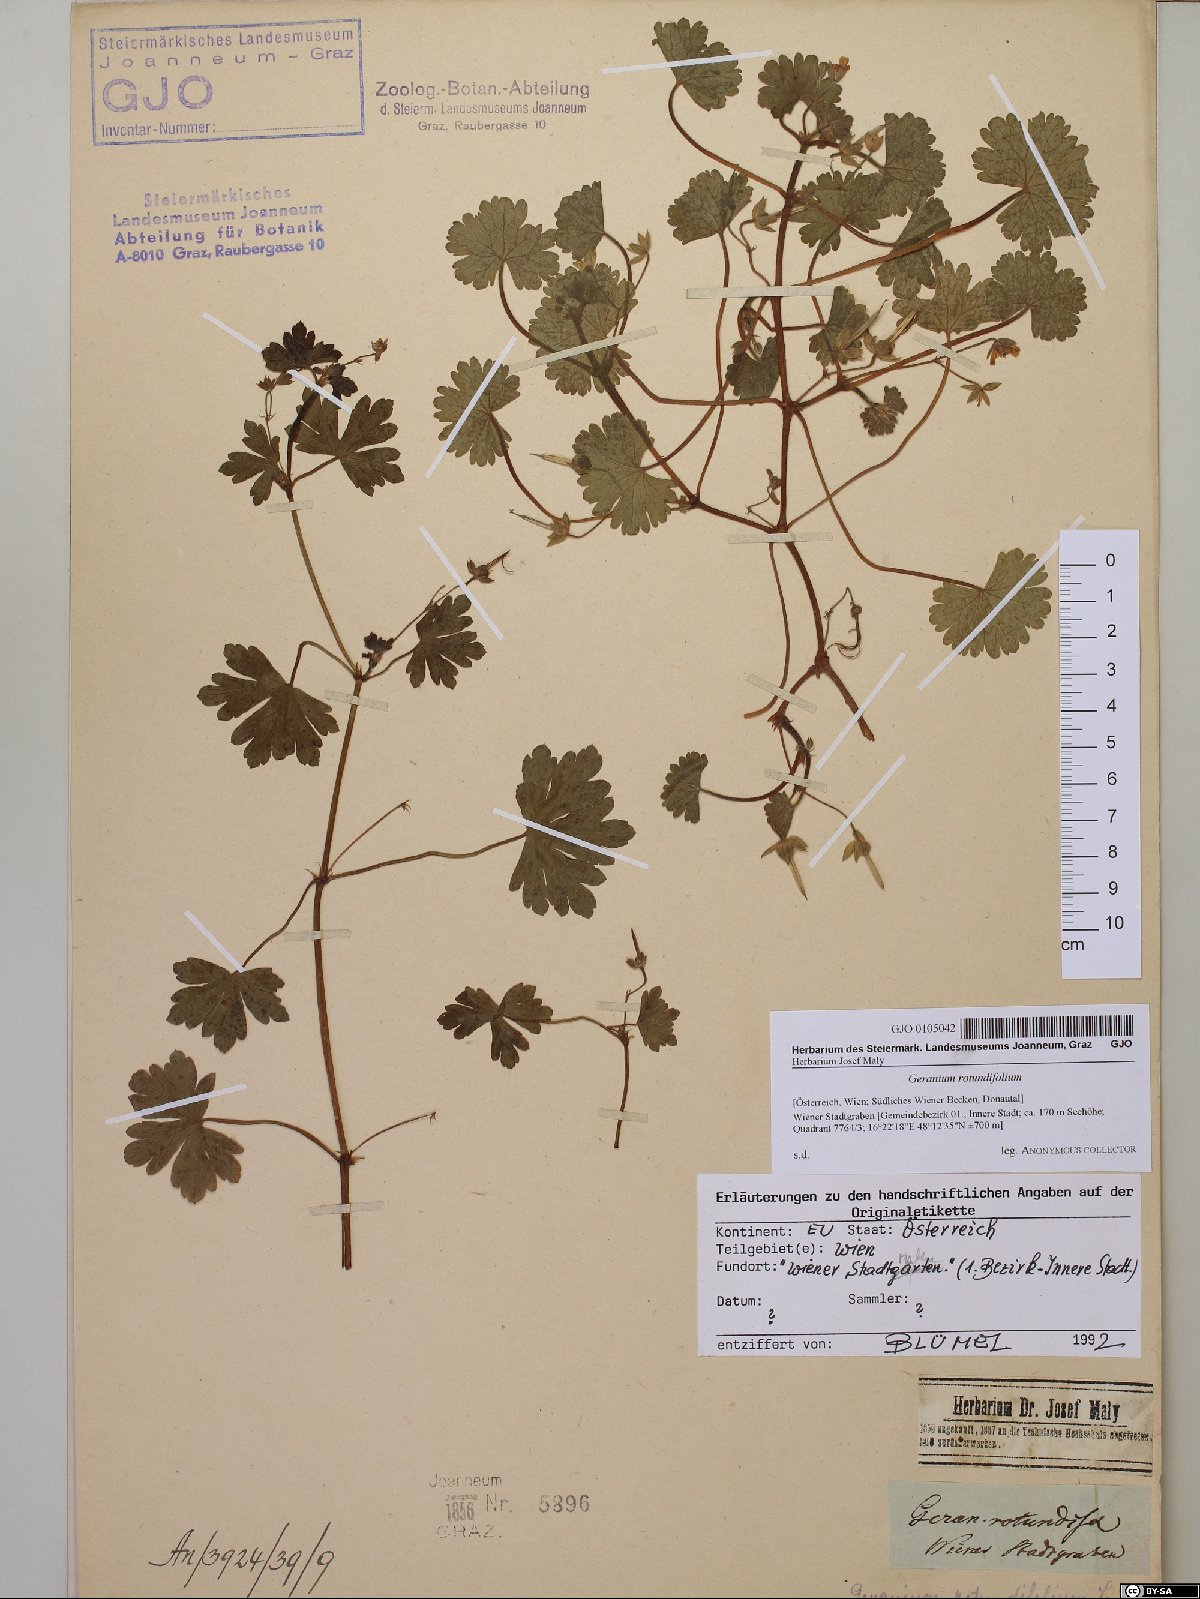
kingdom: Plantae
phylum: Tracheophyta
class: Magnoliopsida
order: Geraniales
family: Geraniaceae
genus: Geranium
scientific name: Geranium rotundifolium
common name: Round-leaved crane's-bill
